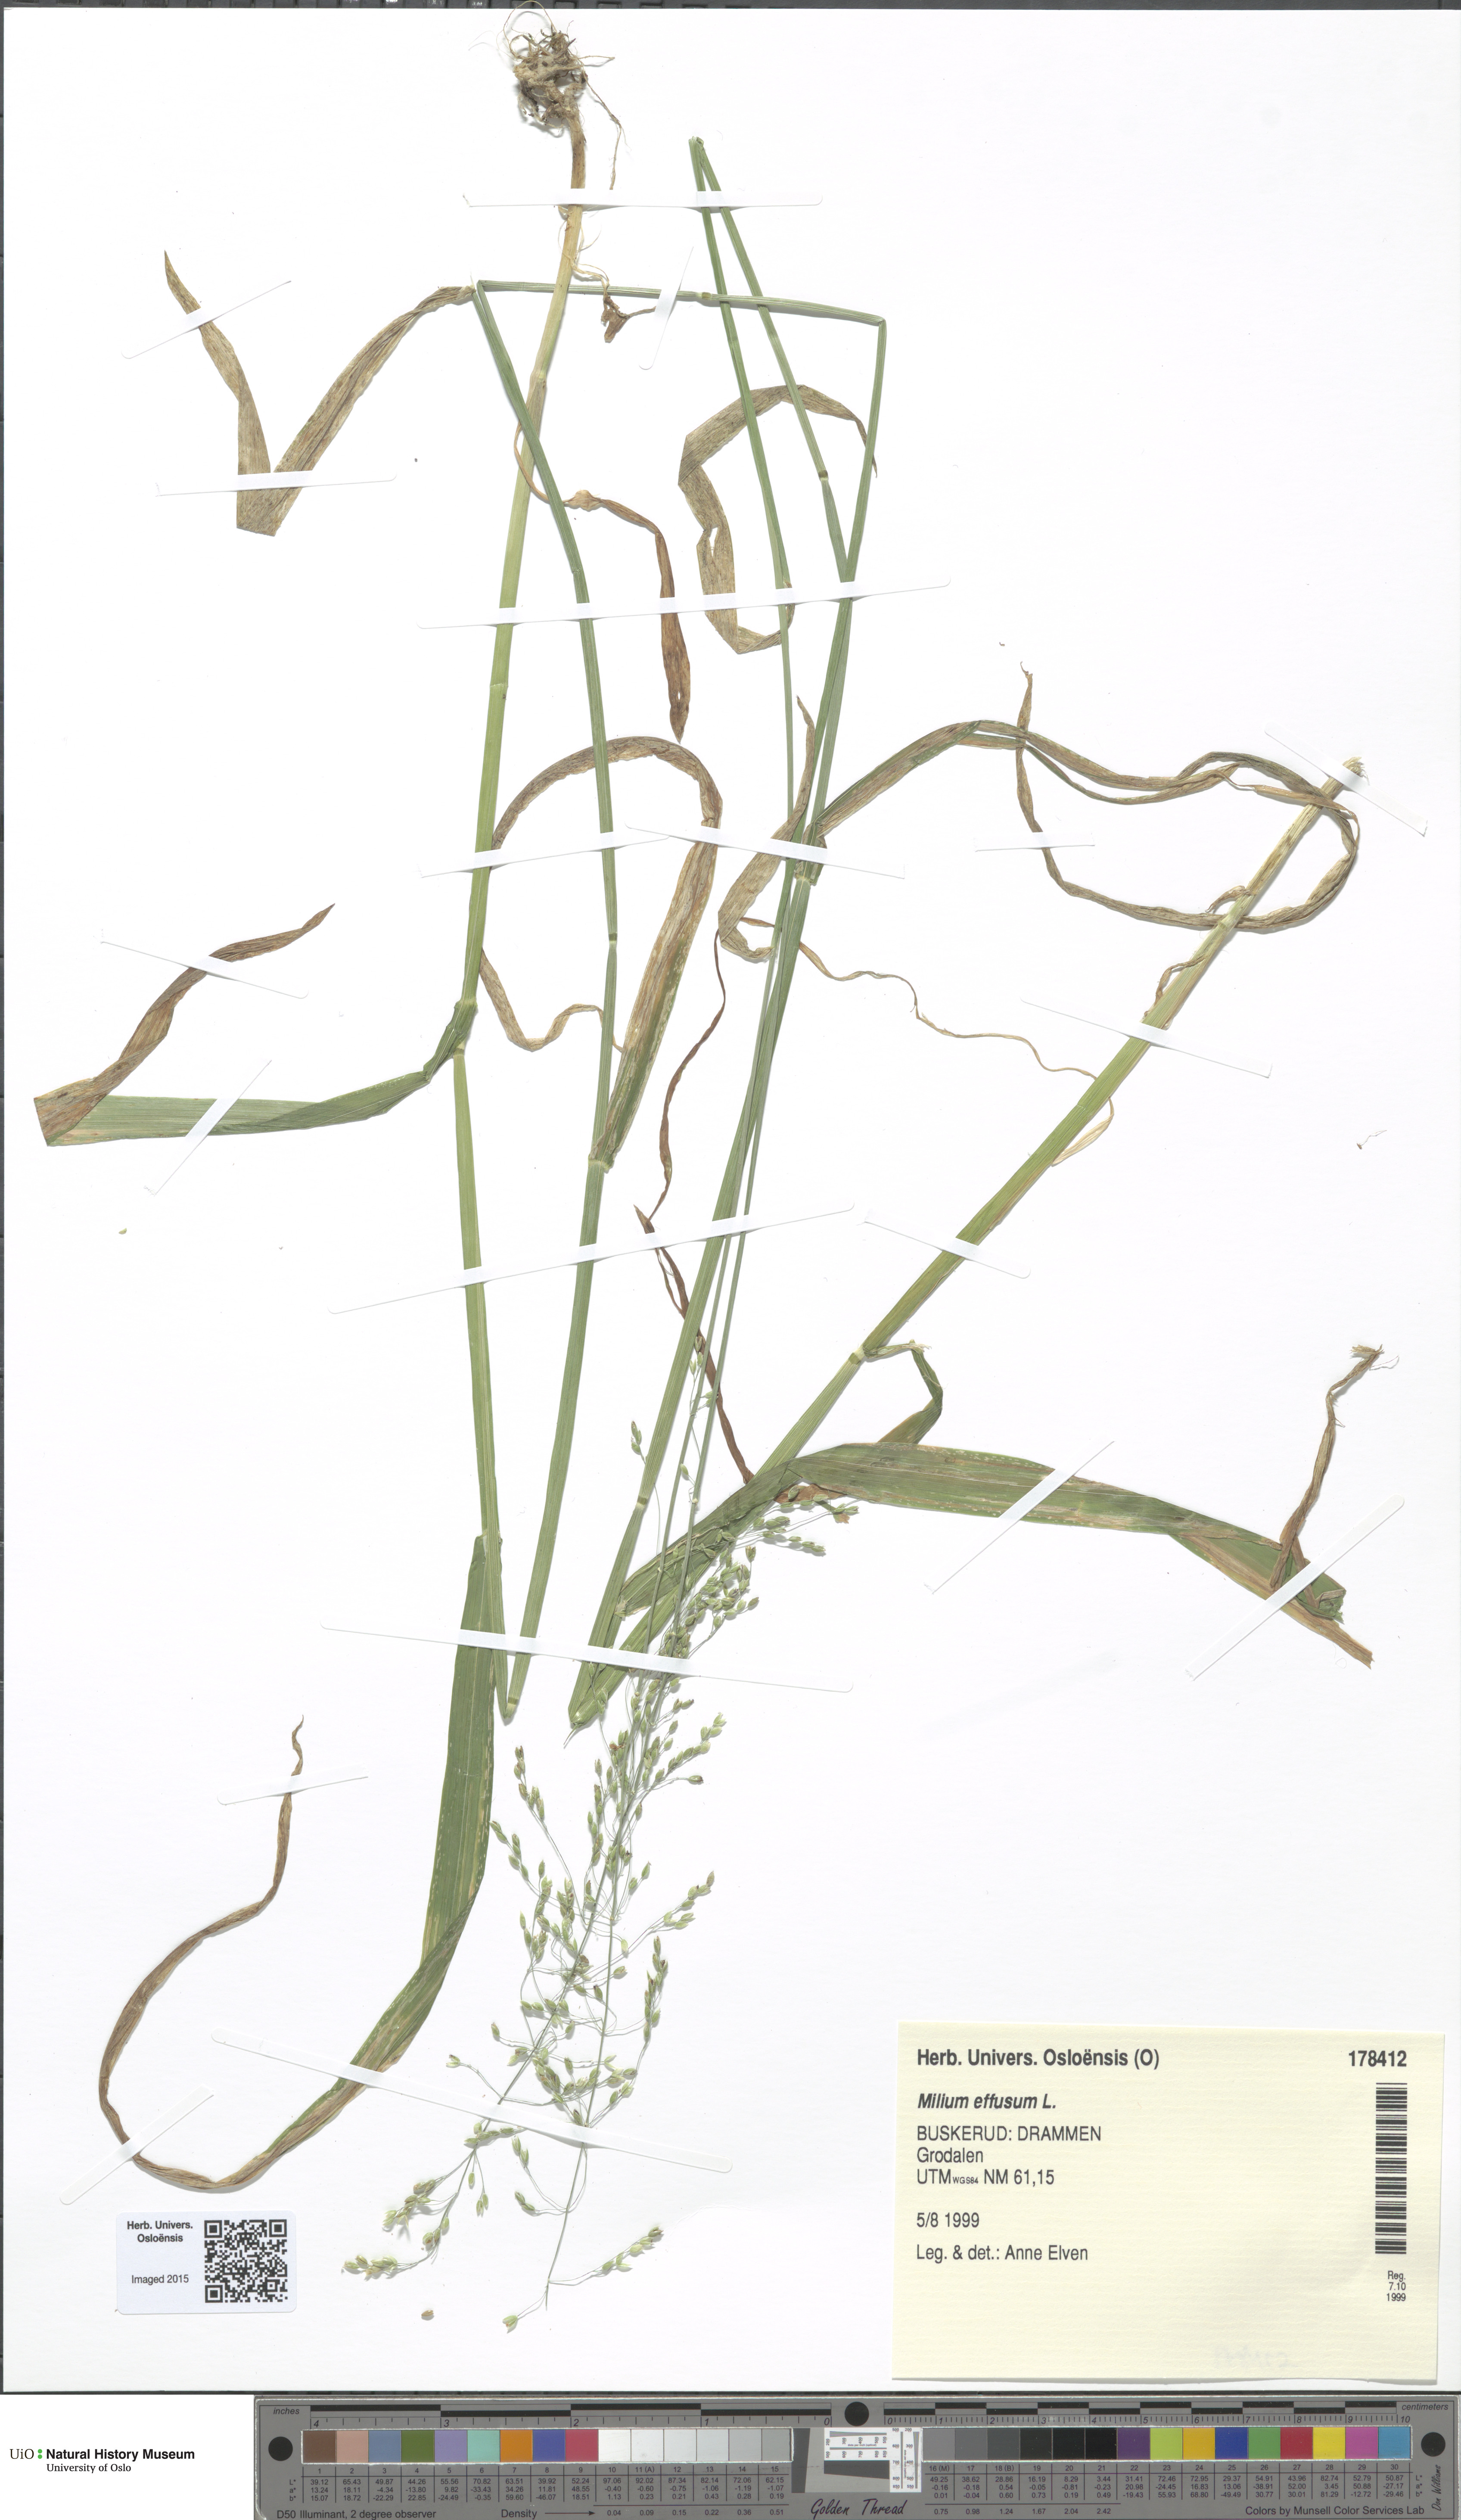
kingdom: Plantae
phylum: Tracheophyta
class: Liliopsida
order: Poales
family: Poaceae
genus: Milium
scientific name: Milium effusum
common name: Wood millet
